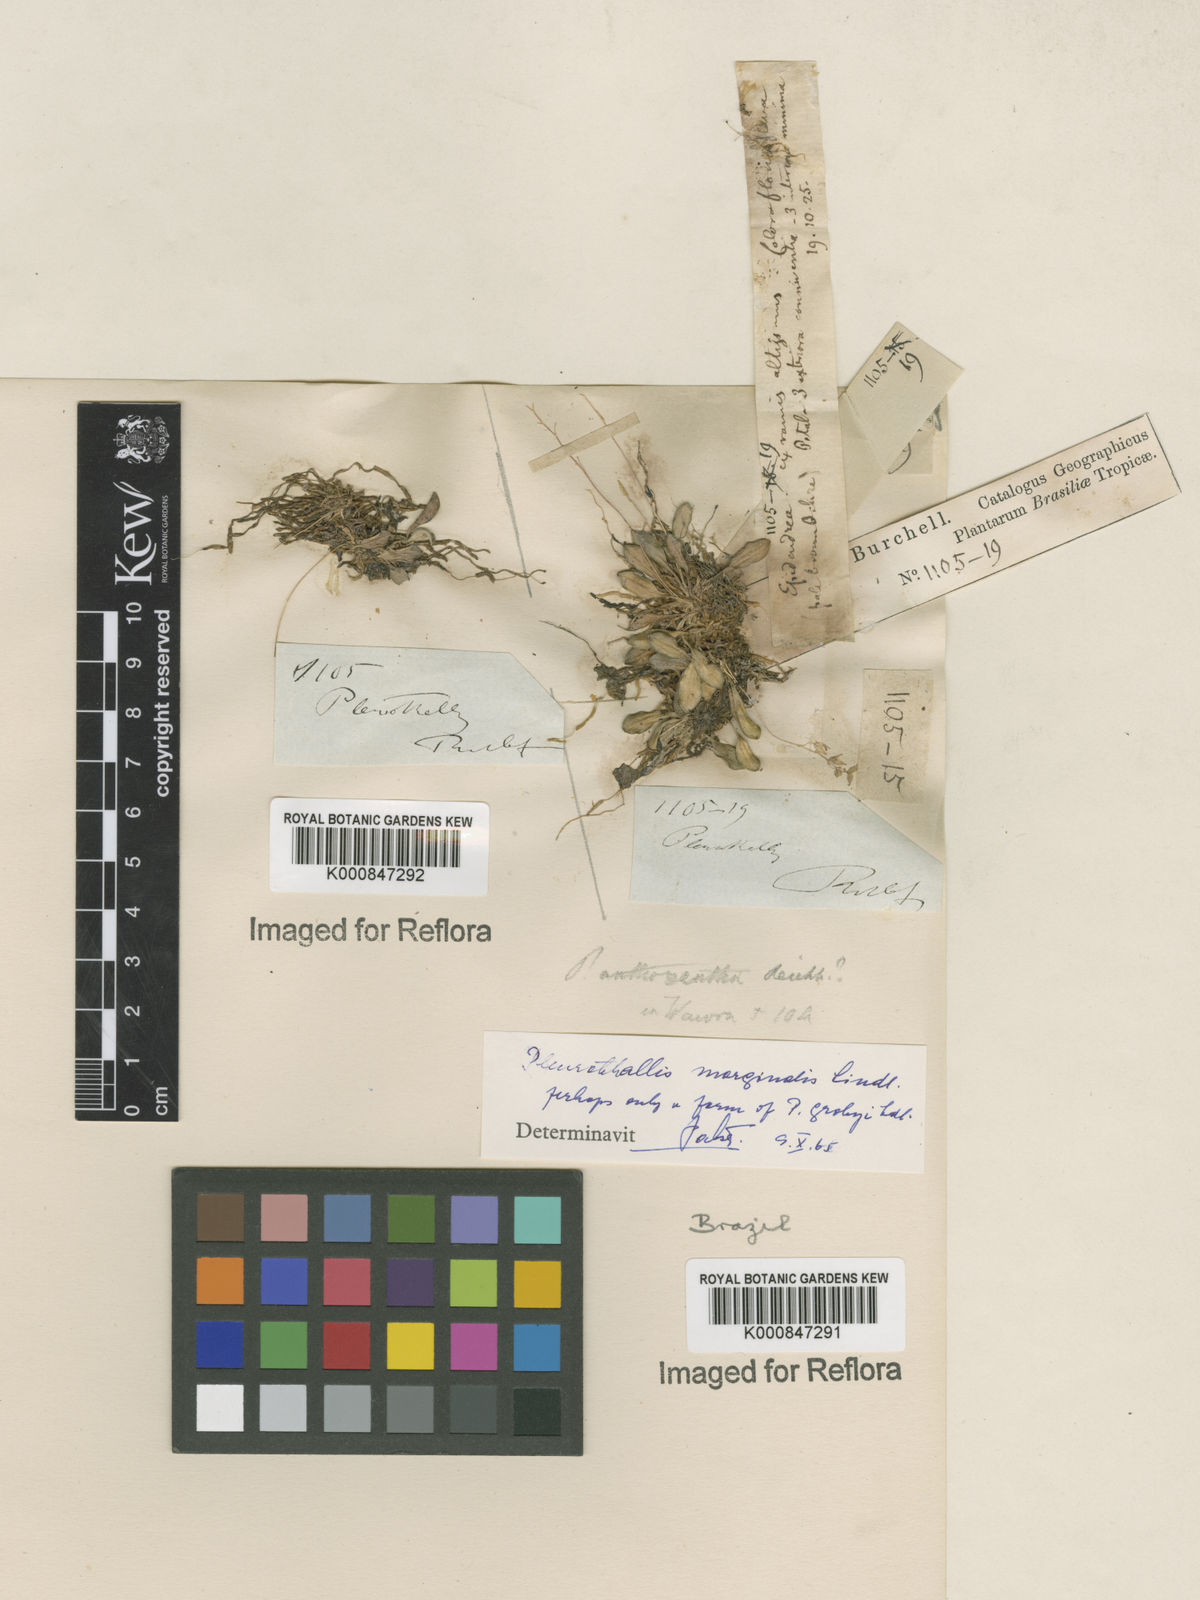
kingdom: Plantae
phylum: Tracheophyta
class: Liliopsida
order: Asparagales
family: Orchidaceae
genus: Anathallis
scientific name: Anathallis
